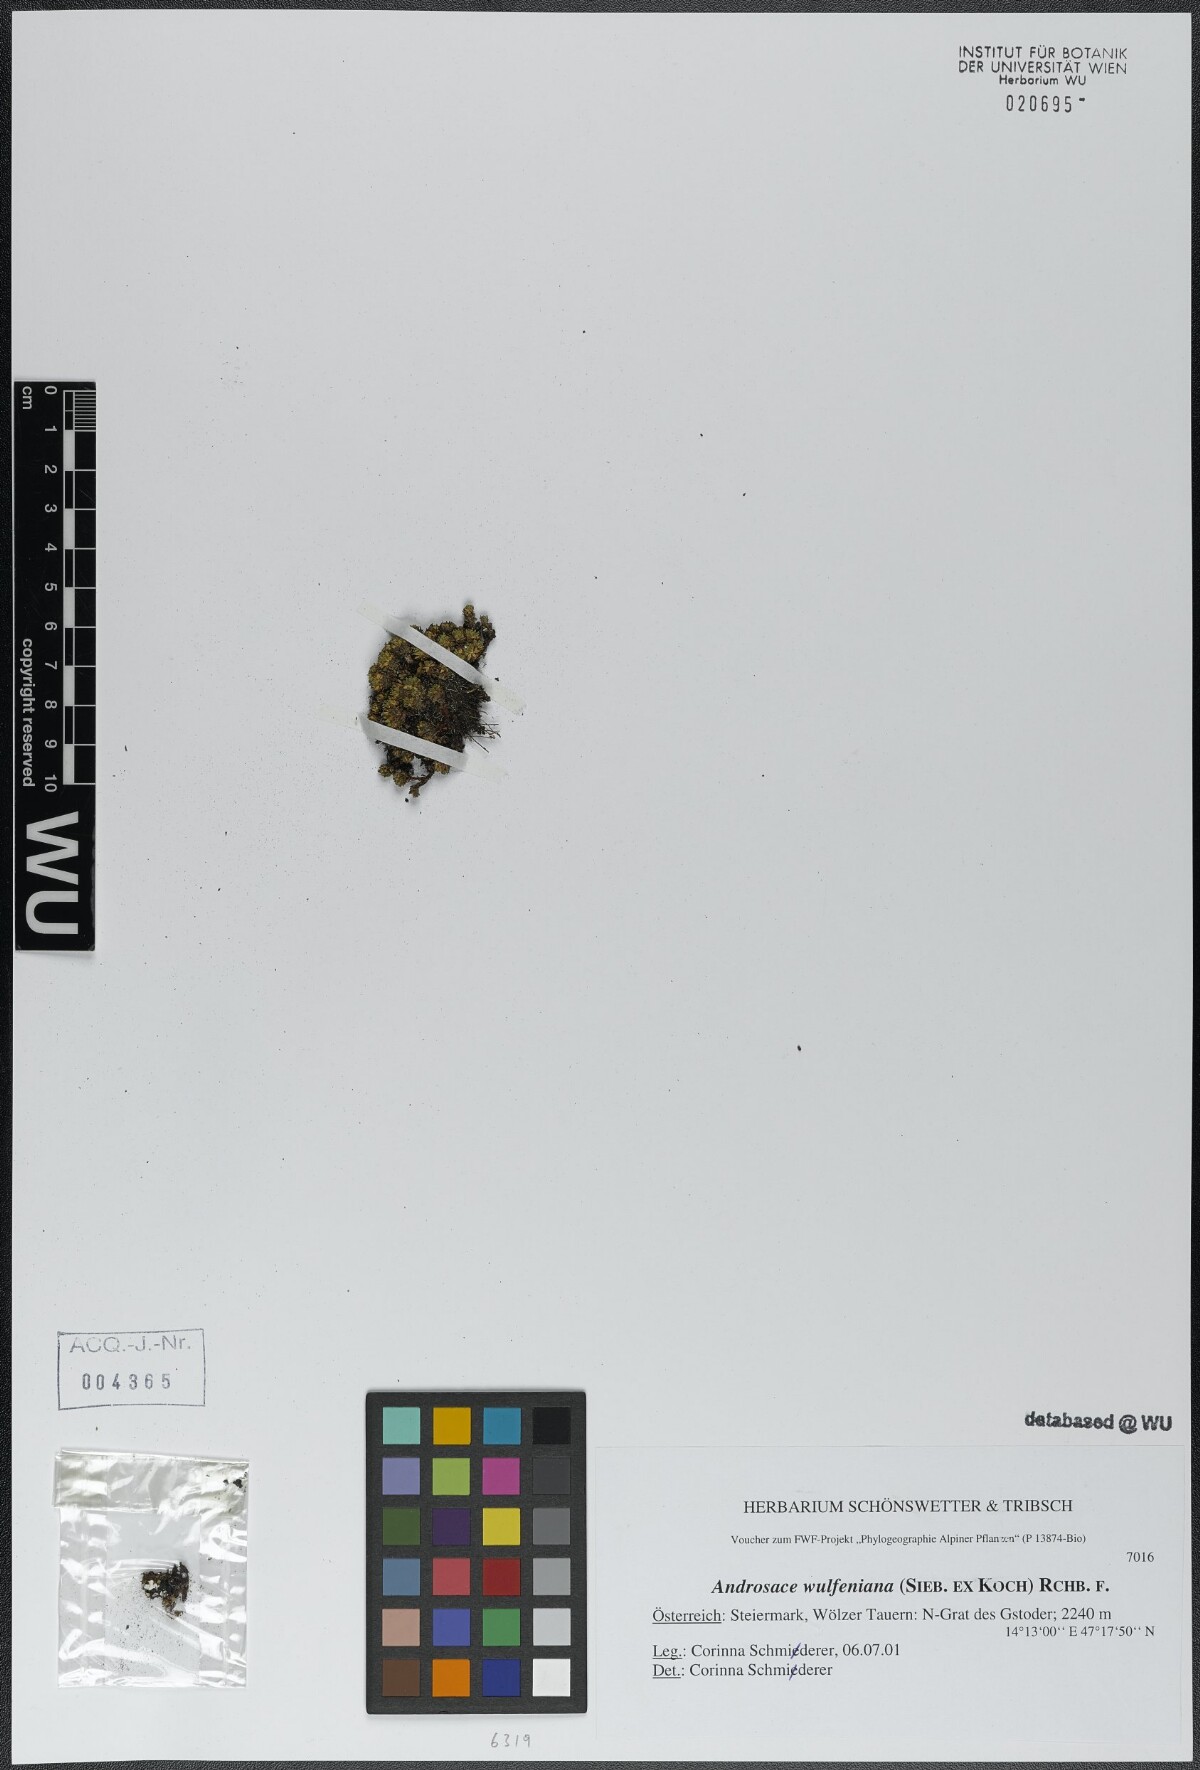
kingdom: Plantae
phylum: Tracheophyta
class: Magnoliopsida
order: Ericales
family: Primulaceae
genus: Androsace
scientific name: Androsace wulfeniana
